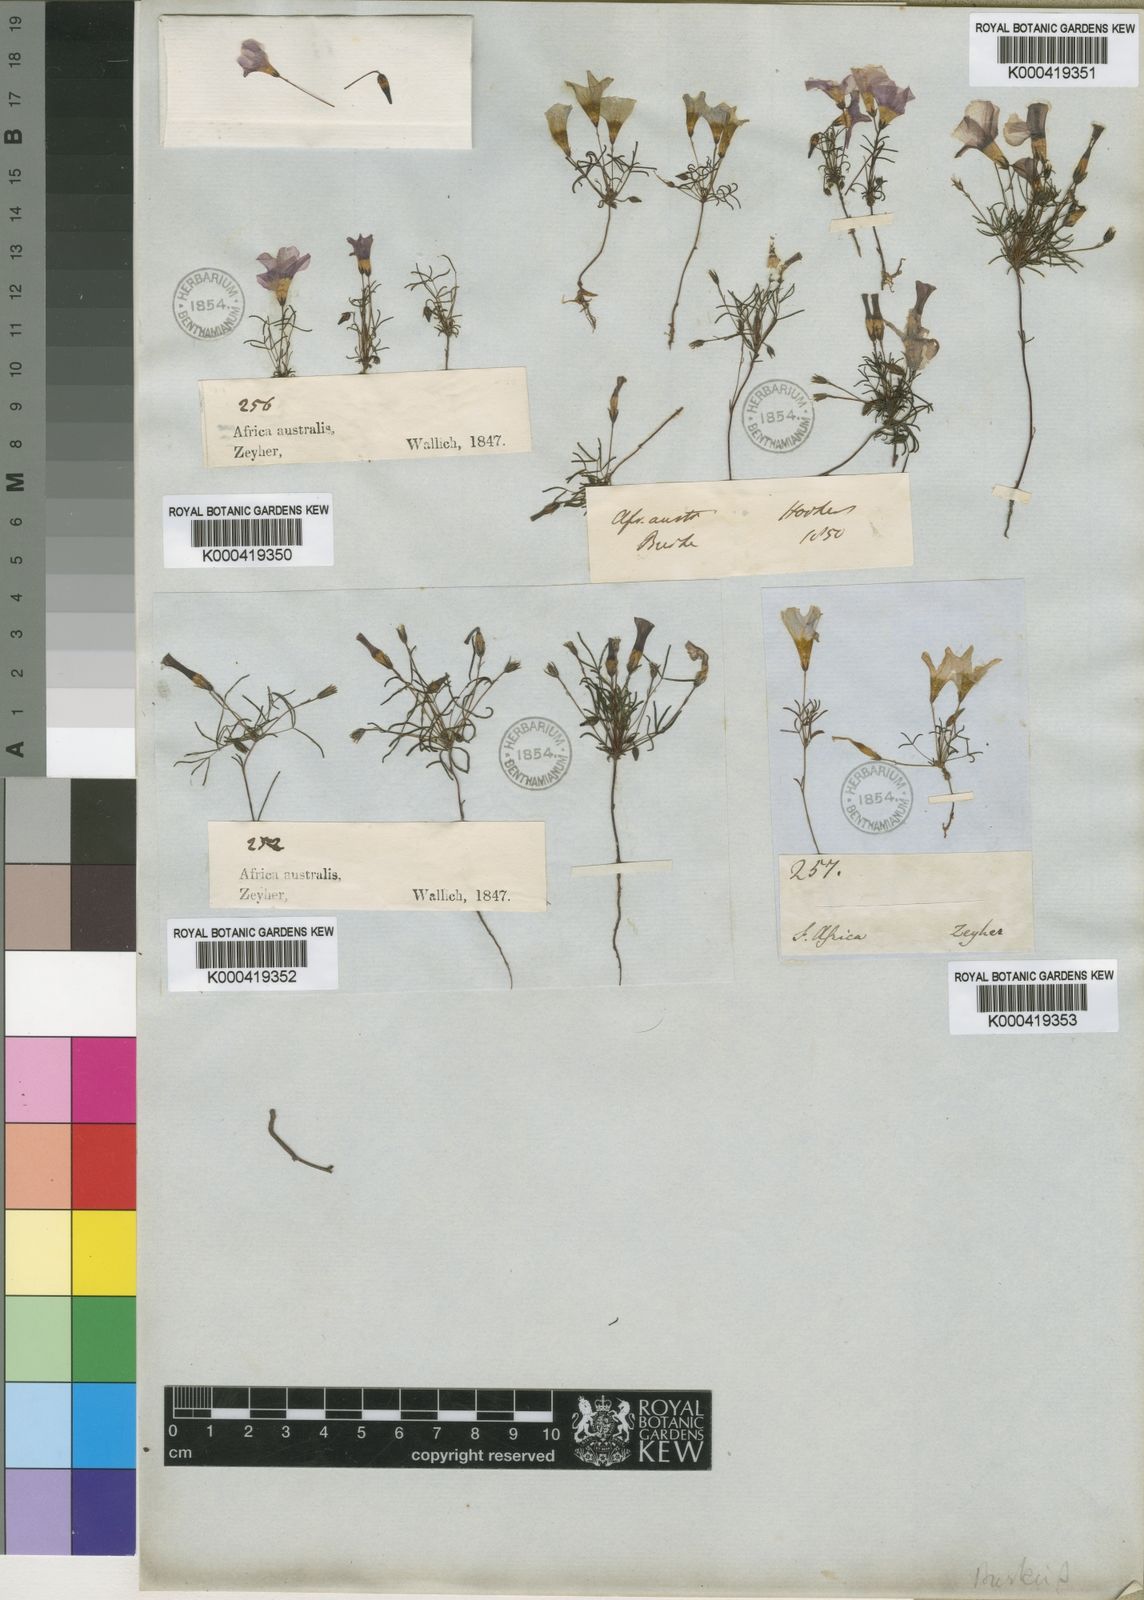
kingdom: Plantae
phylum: Tracheophyta
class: Magnoliopsida
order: Oxalidales
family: Oxalidaceae
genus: Oxalis
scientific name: Oxalis burkei
